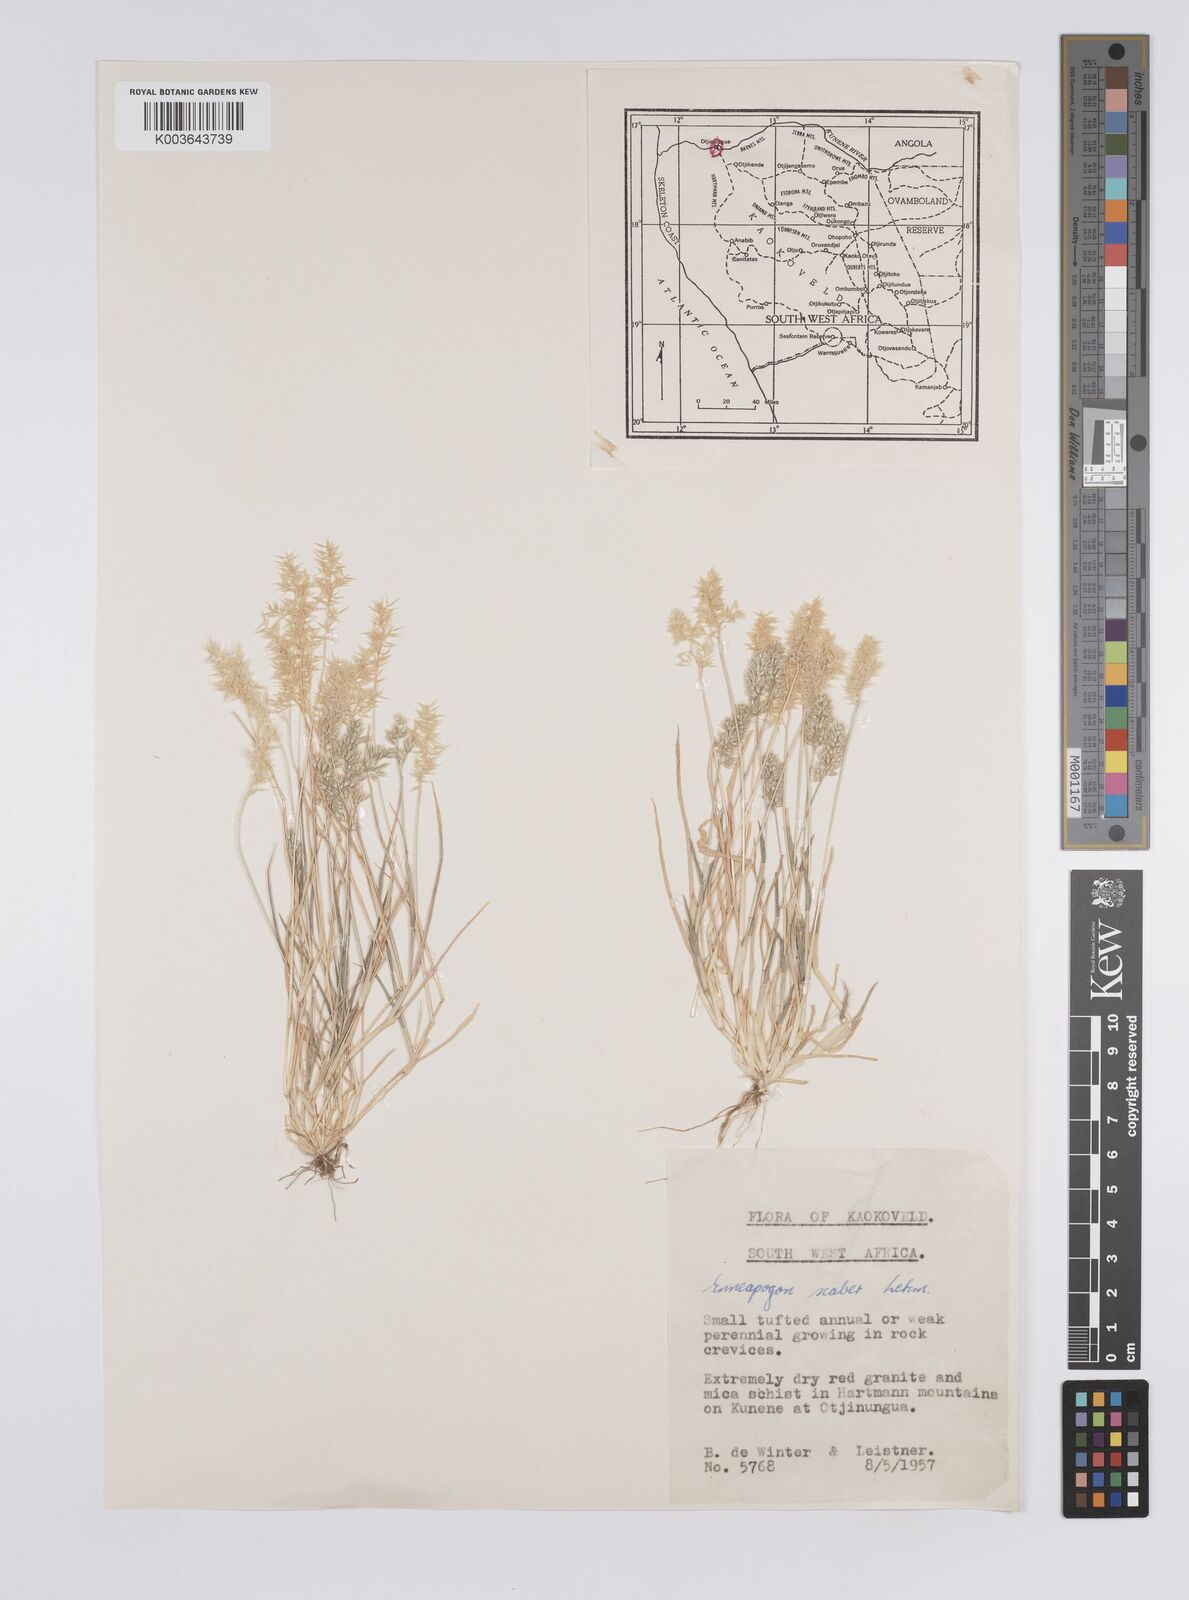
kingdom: Plantae
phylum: Tracheophyta
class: Liliopsida
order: Poales
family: Poaceae
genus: Enneapogon
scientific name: Enneapogon scaber
